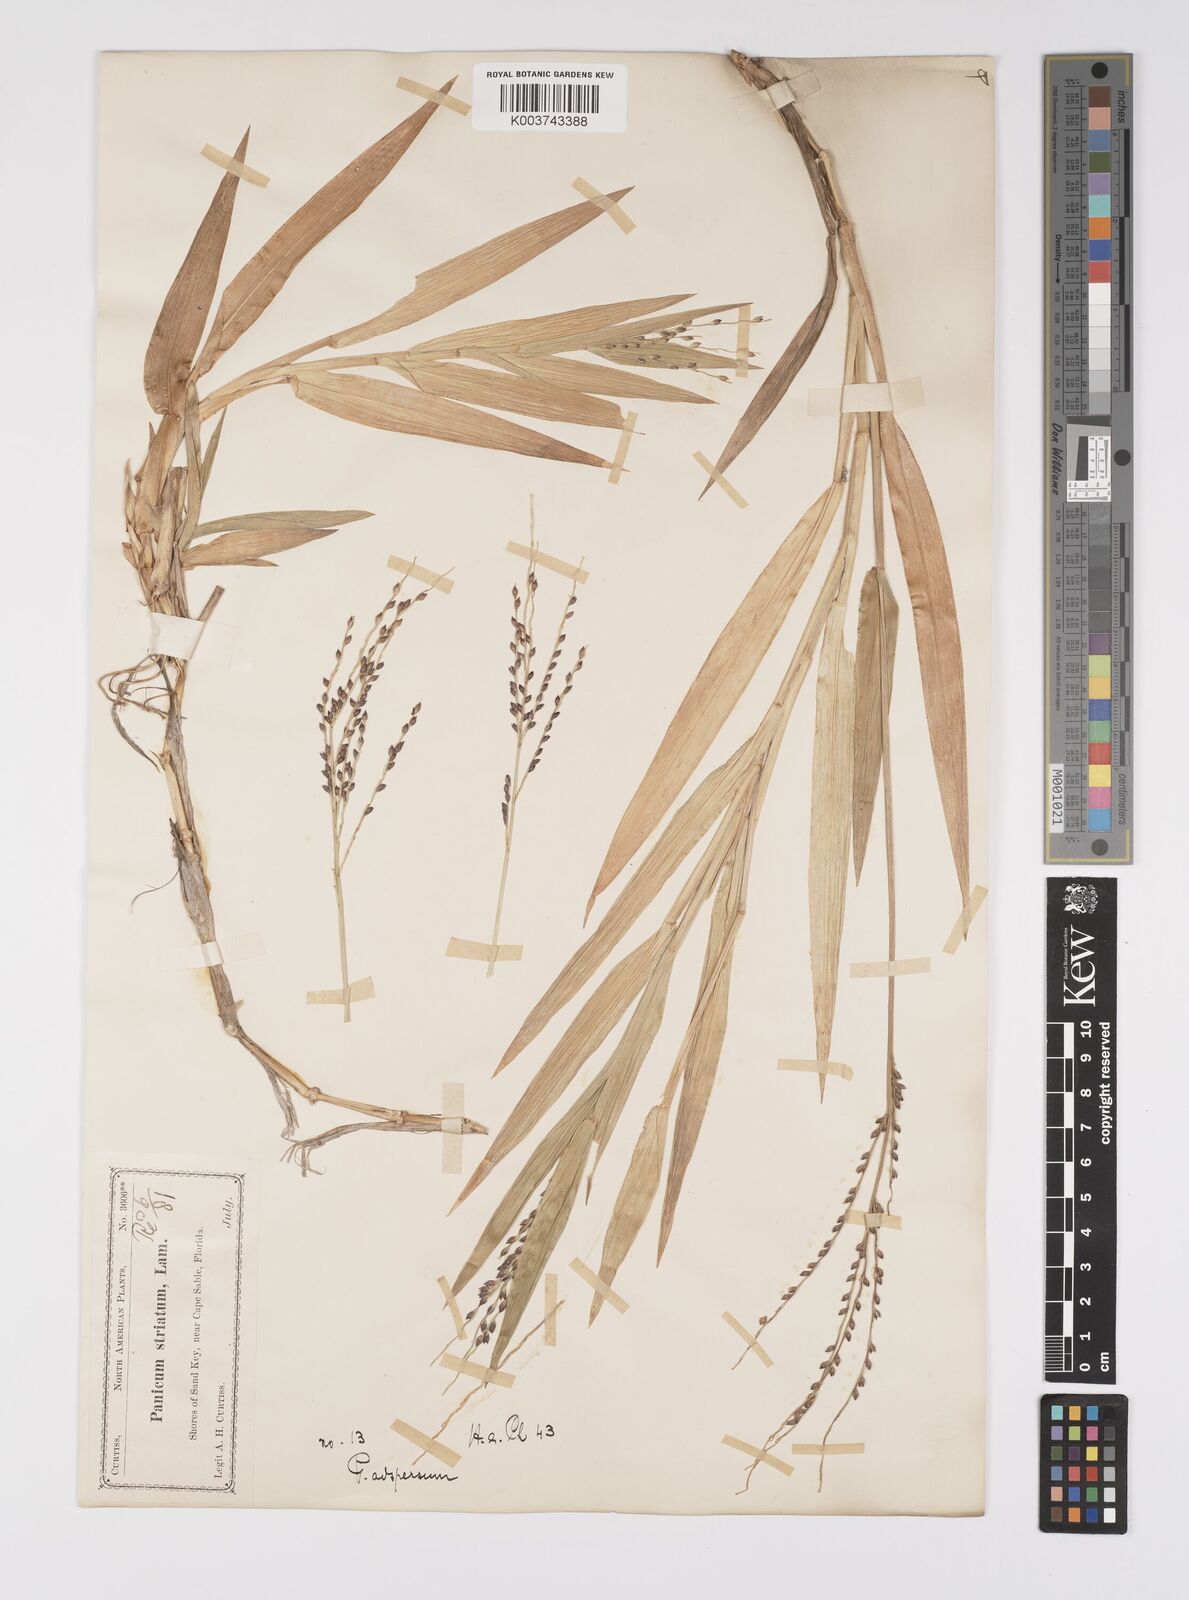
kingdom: Plantae
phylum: Tracheophyta
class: Liliopsida
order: Poales
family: Poaceae
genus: Urochloa
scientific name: Urochloa adspersa
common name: Dominican signal grass
